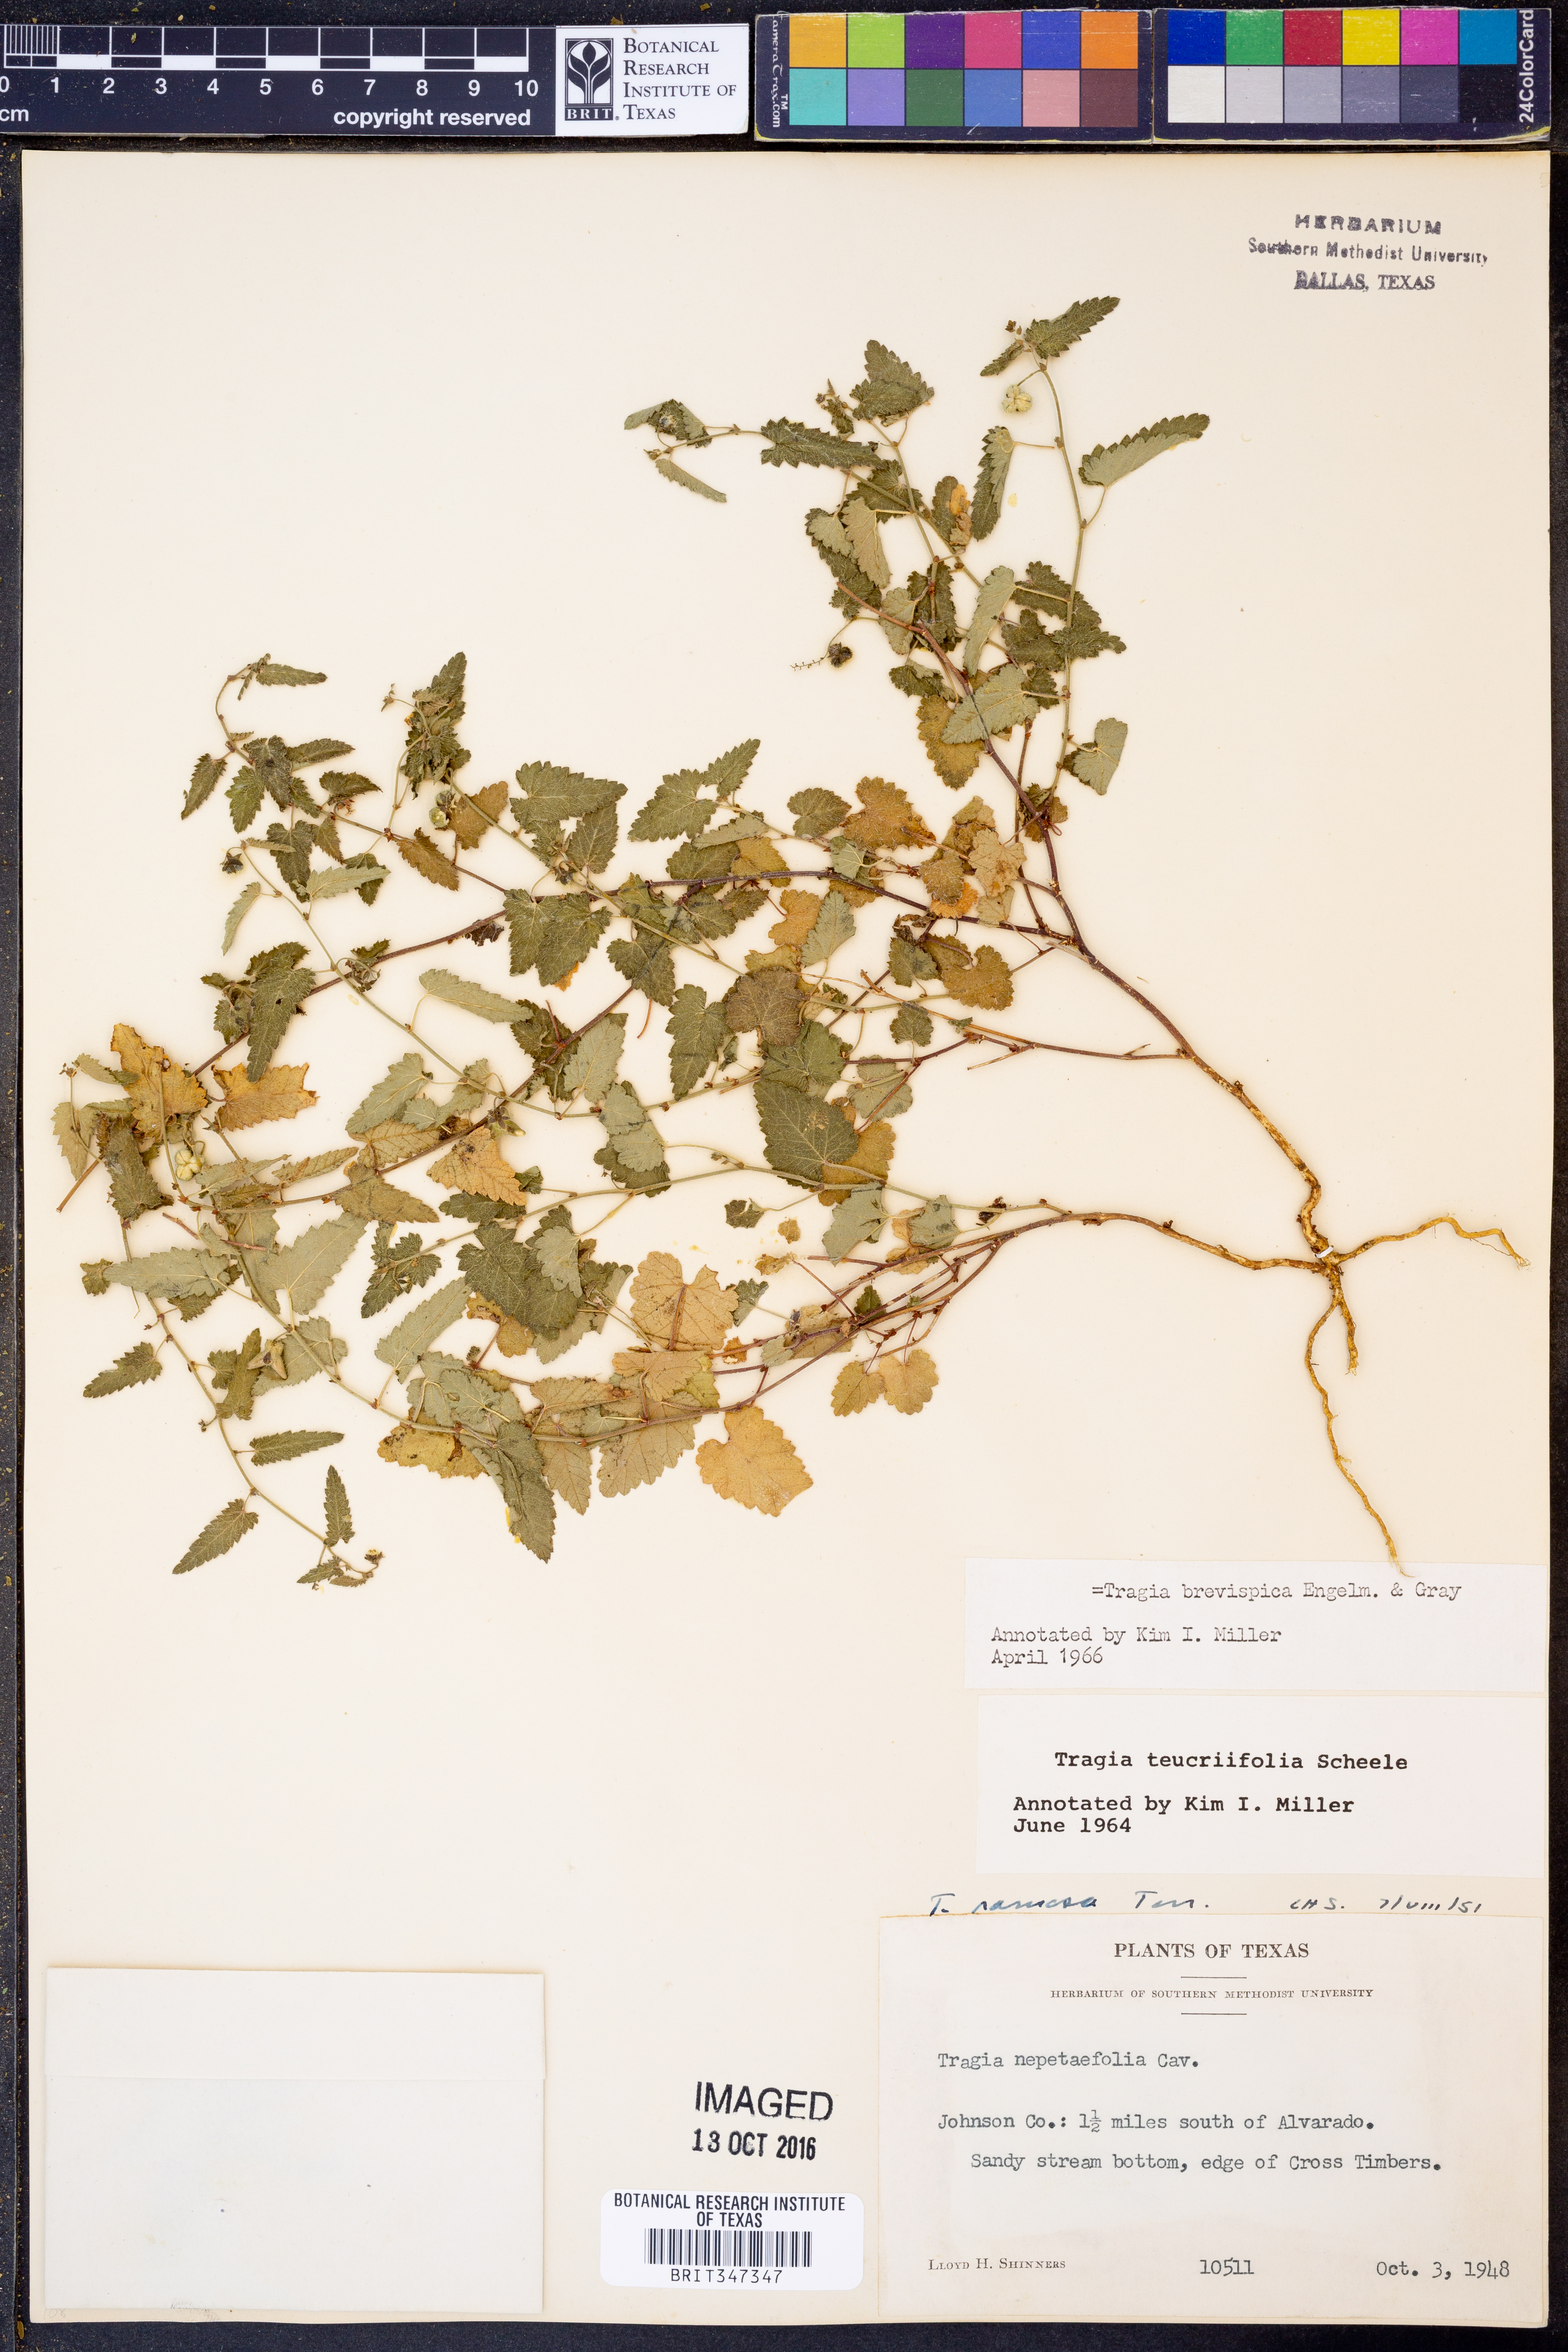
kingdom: Plantae
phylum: Tracheophyta
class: Magnoliopsida
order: Malpighiales
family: Euphorbiaceae
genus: Tragia
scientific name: Tragia brevispica
